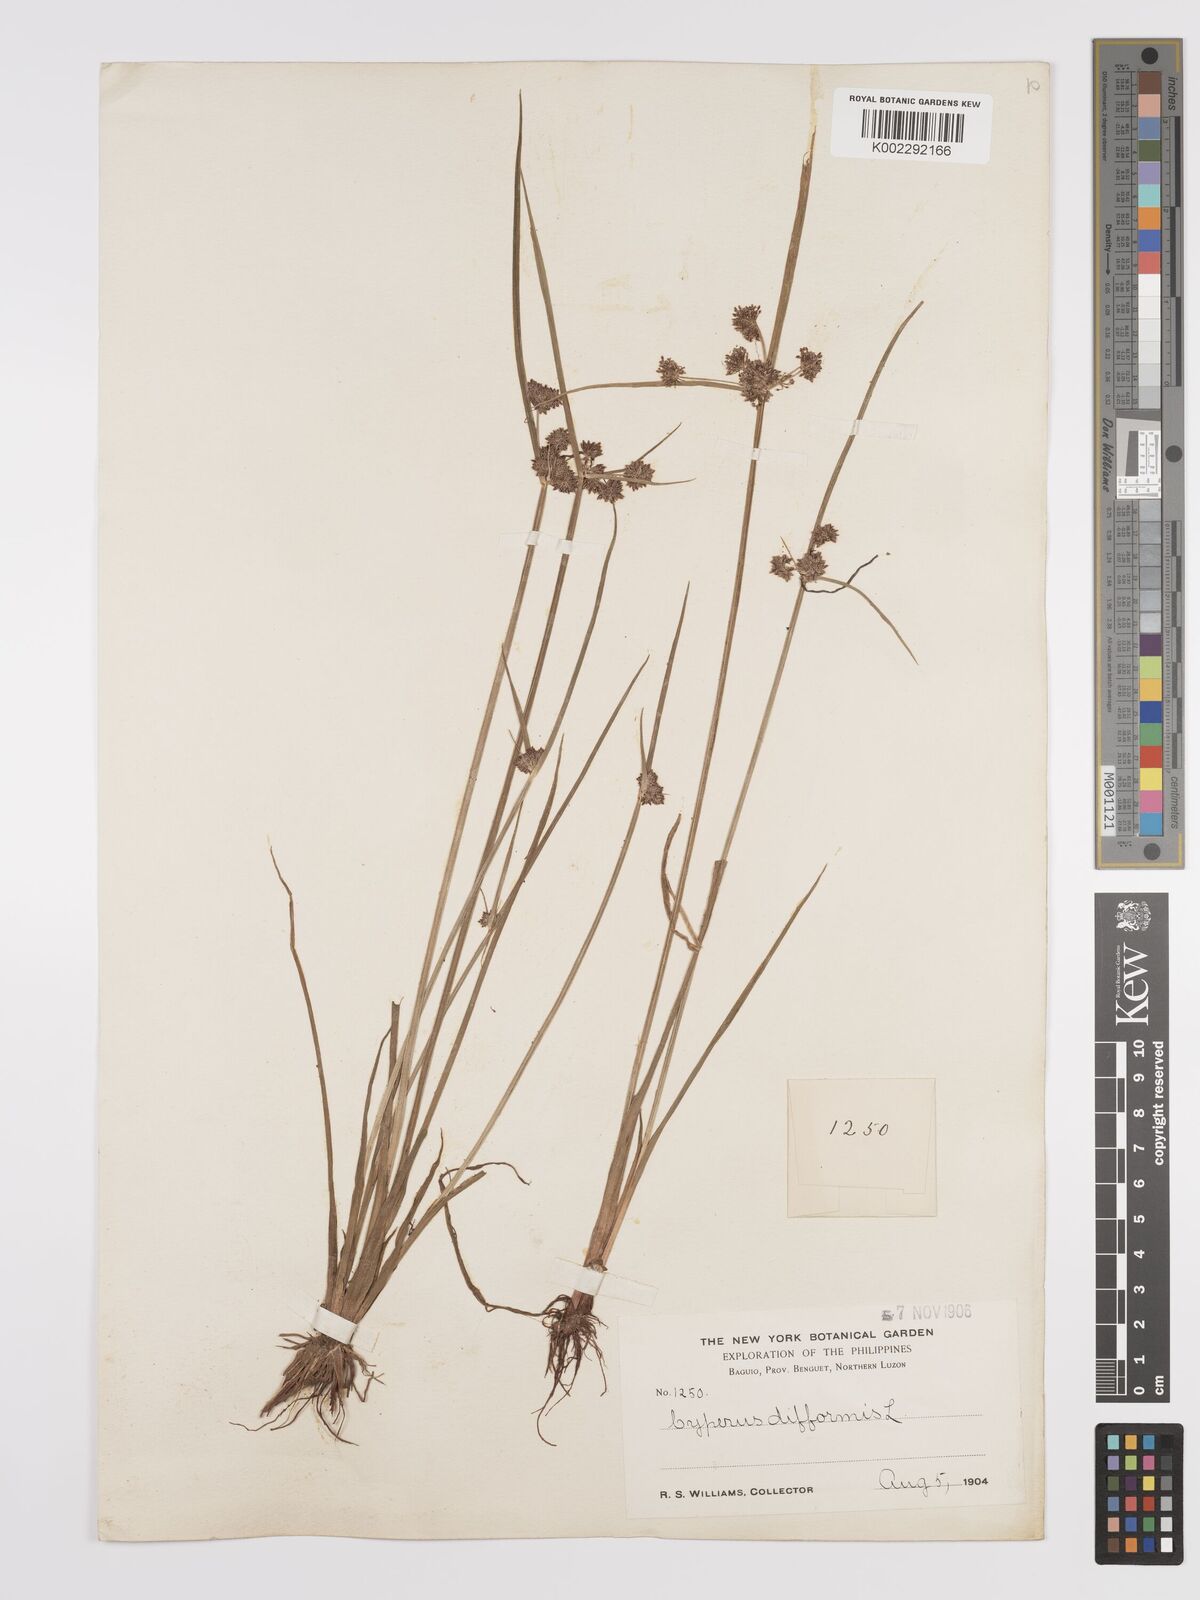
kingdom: Plantae
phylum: Tracheophyta
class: Liliopsida
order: Poales
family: Cyperaceae
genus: Cyperus
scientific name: Cyperus difformis
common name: Variable flatsedge
